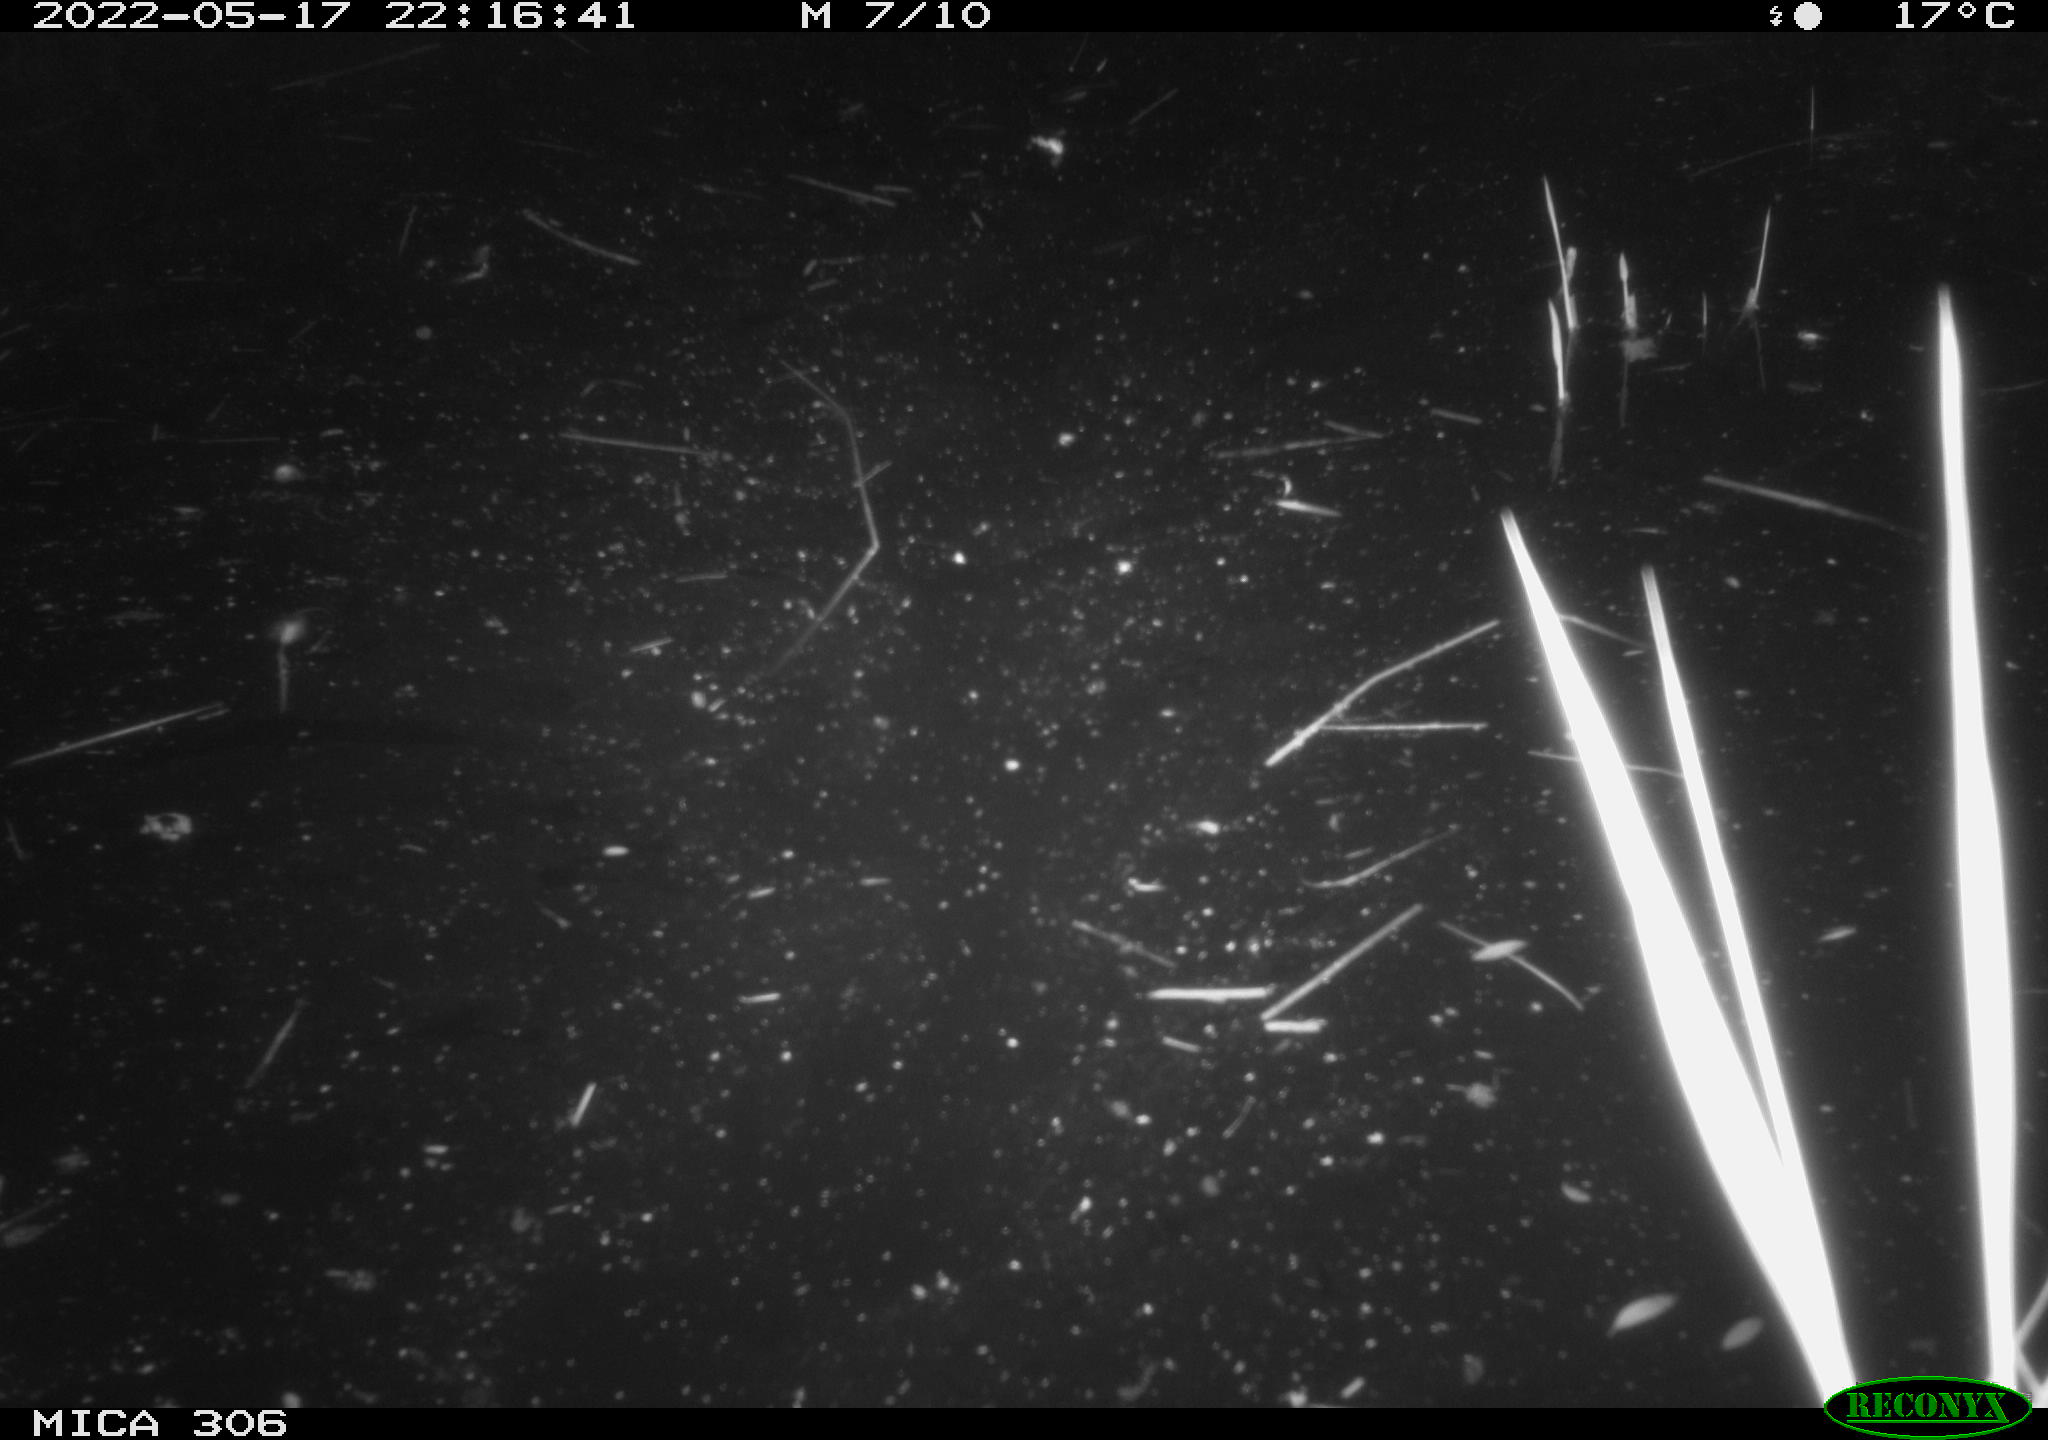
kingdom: Animalia
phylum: Chordata
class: Mammalia
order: Rodentia
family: Cricetidae
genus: Ondatra
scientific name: Ondatra zibethicus
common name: Muskrat
